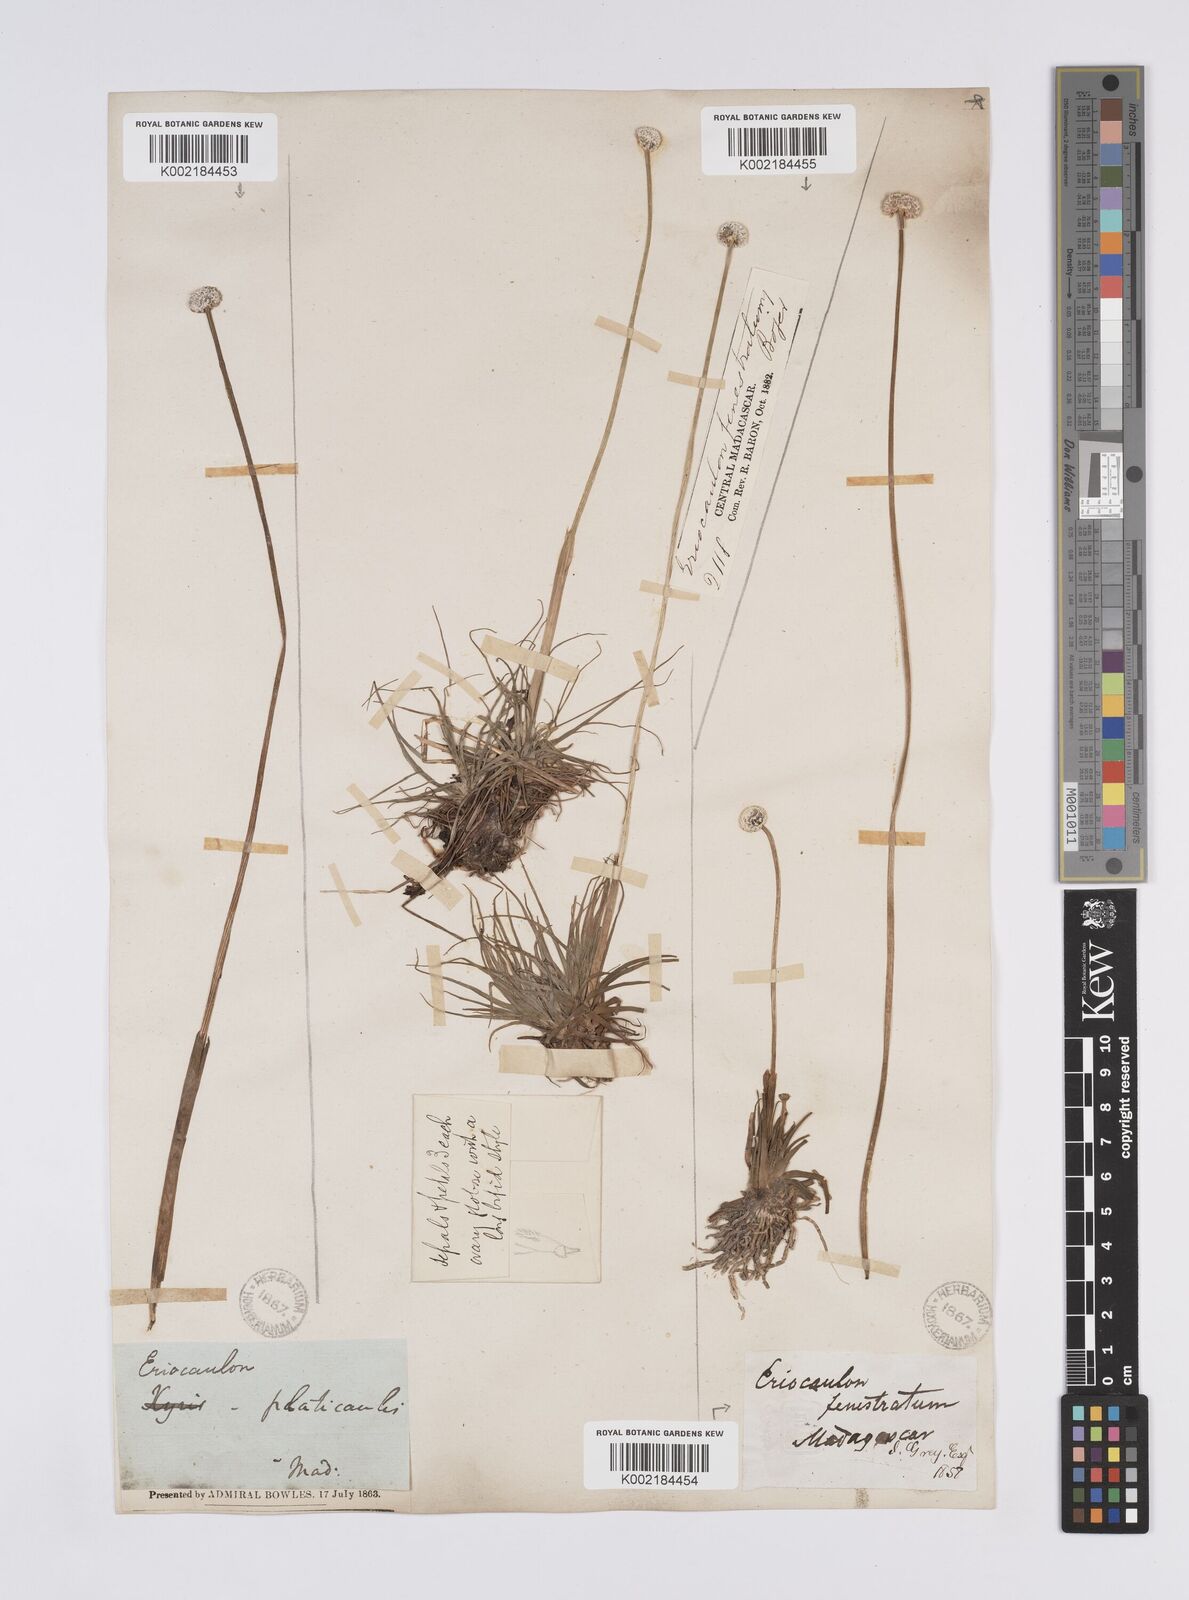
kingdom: Plantae
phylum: Tracheophyta
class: Liliopsida
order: Poales
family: Eriocaulaceae
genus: Eriocaulon
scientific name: Eriocaulon fenestratum
